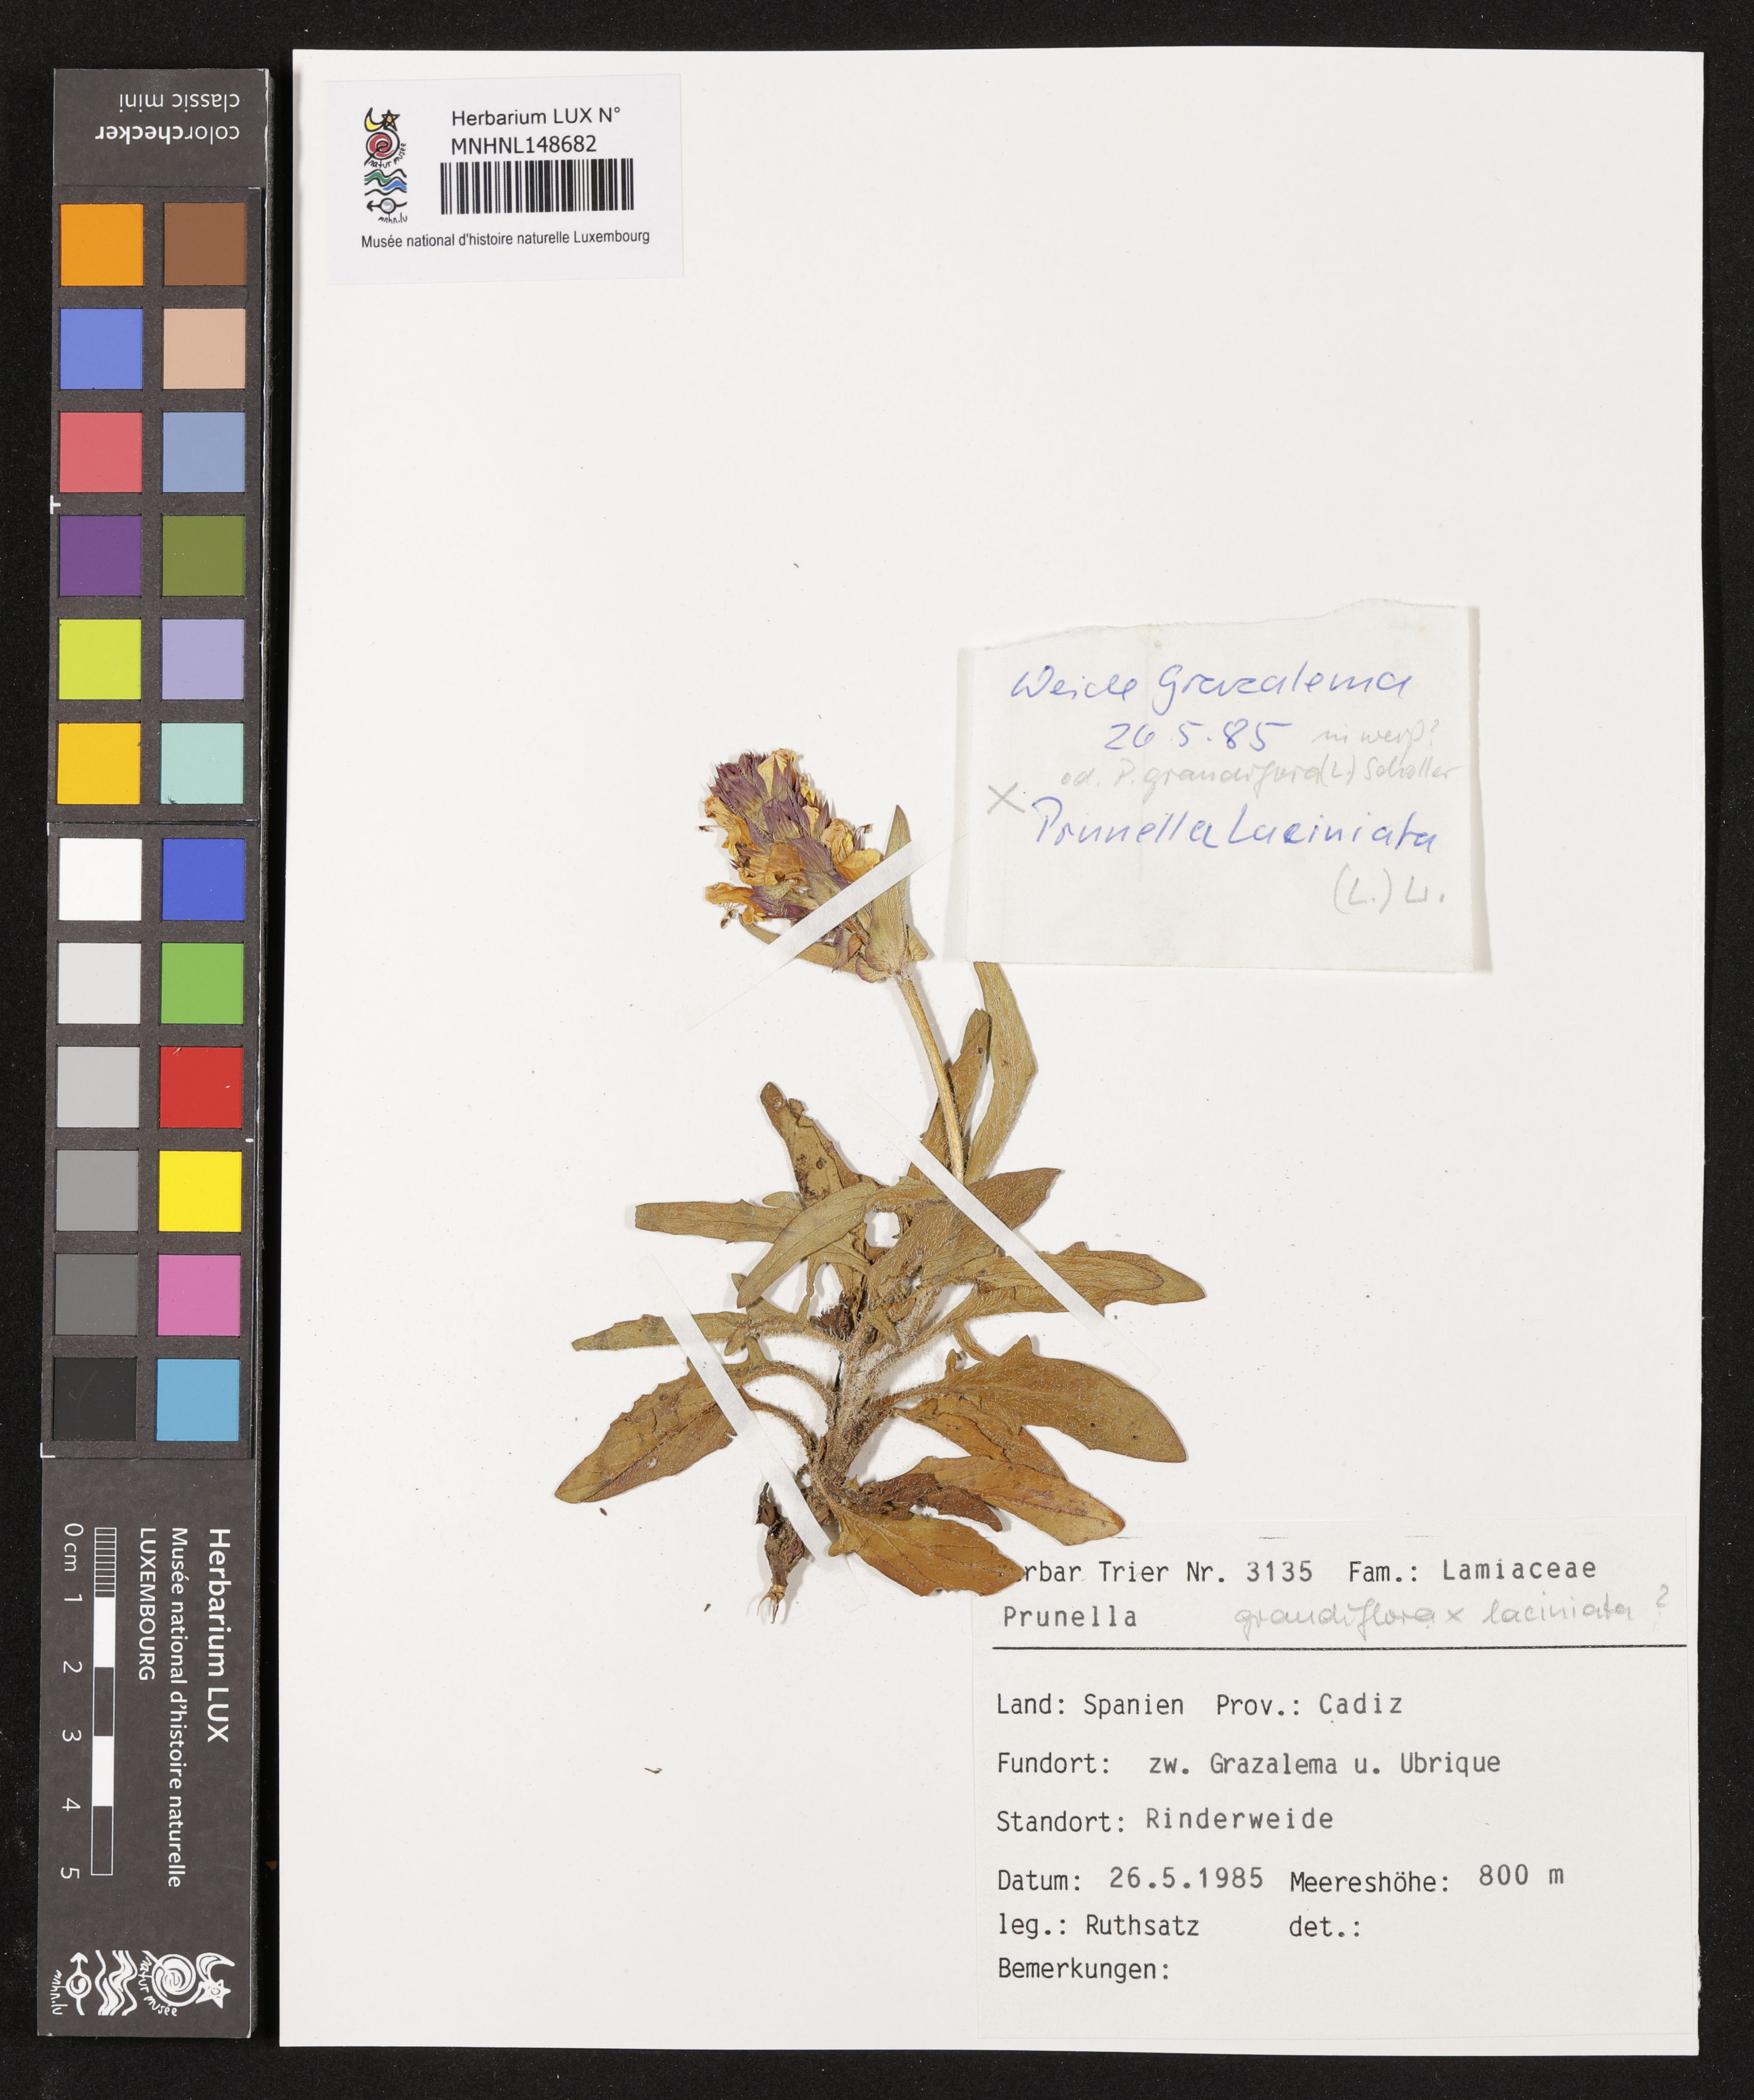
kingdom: Plantae
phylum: Tracheophyta
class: Magnoliopsida
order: Lamiales
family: Lamiaceae
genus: Prunella
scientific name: Prunella grandiflora
